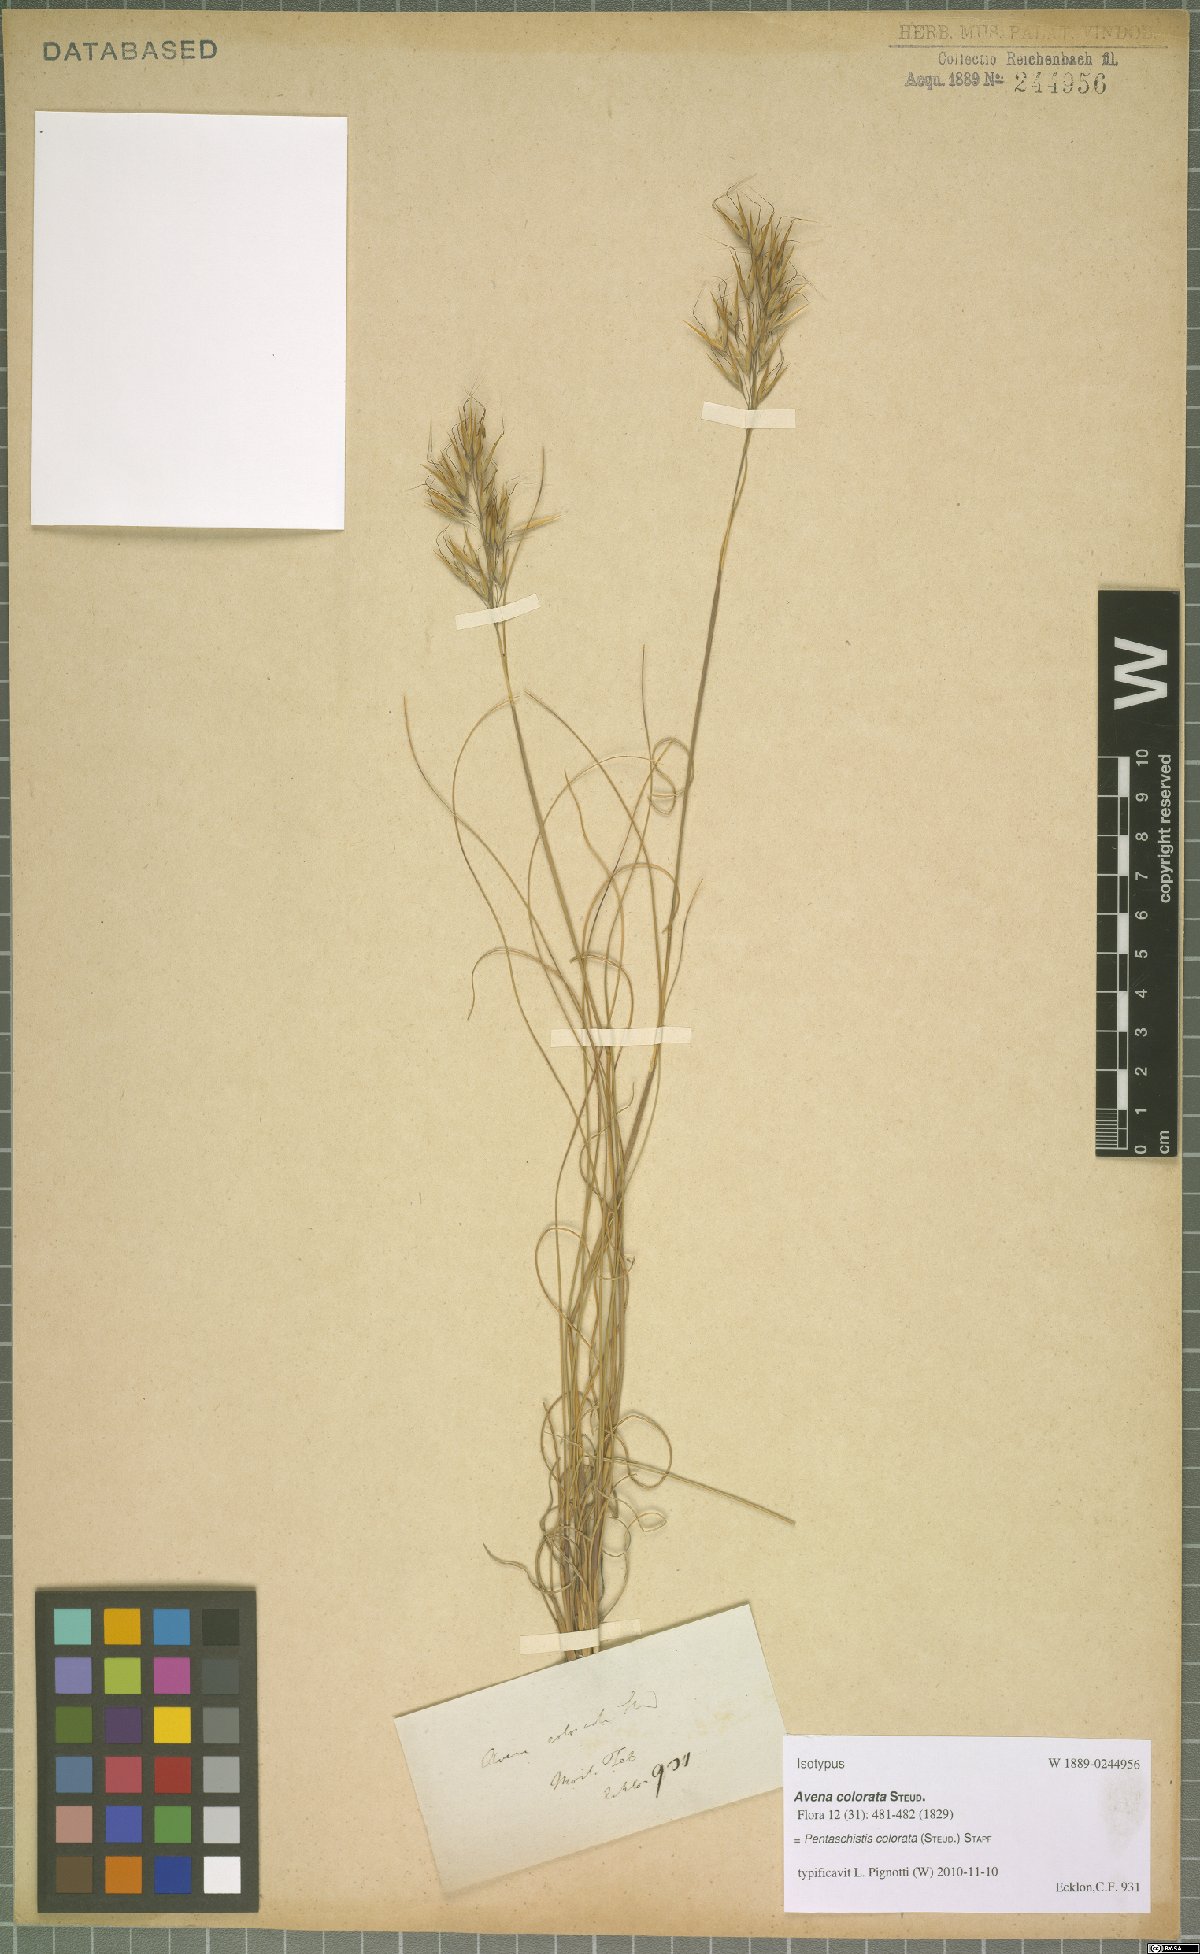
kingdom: Plantae
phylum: Tracheophyta
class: Liliopsida
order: Poales
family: Poaceae
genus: Pentameris
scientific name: Pentameris colorata
